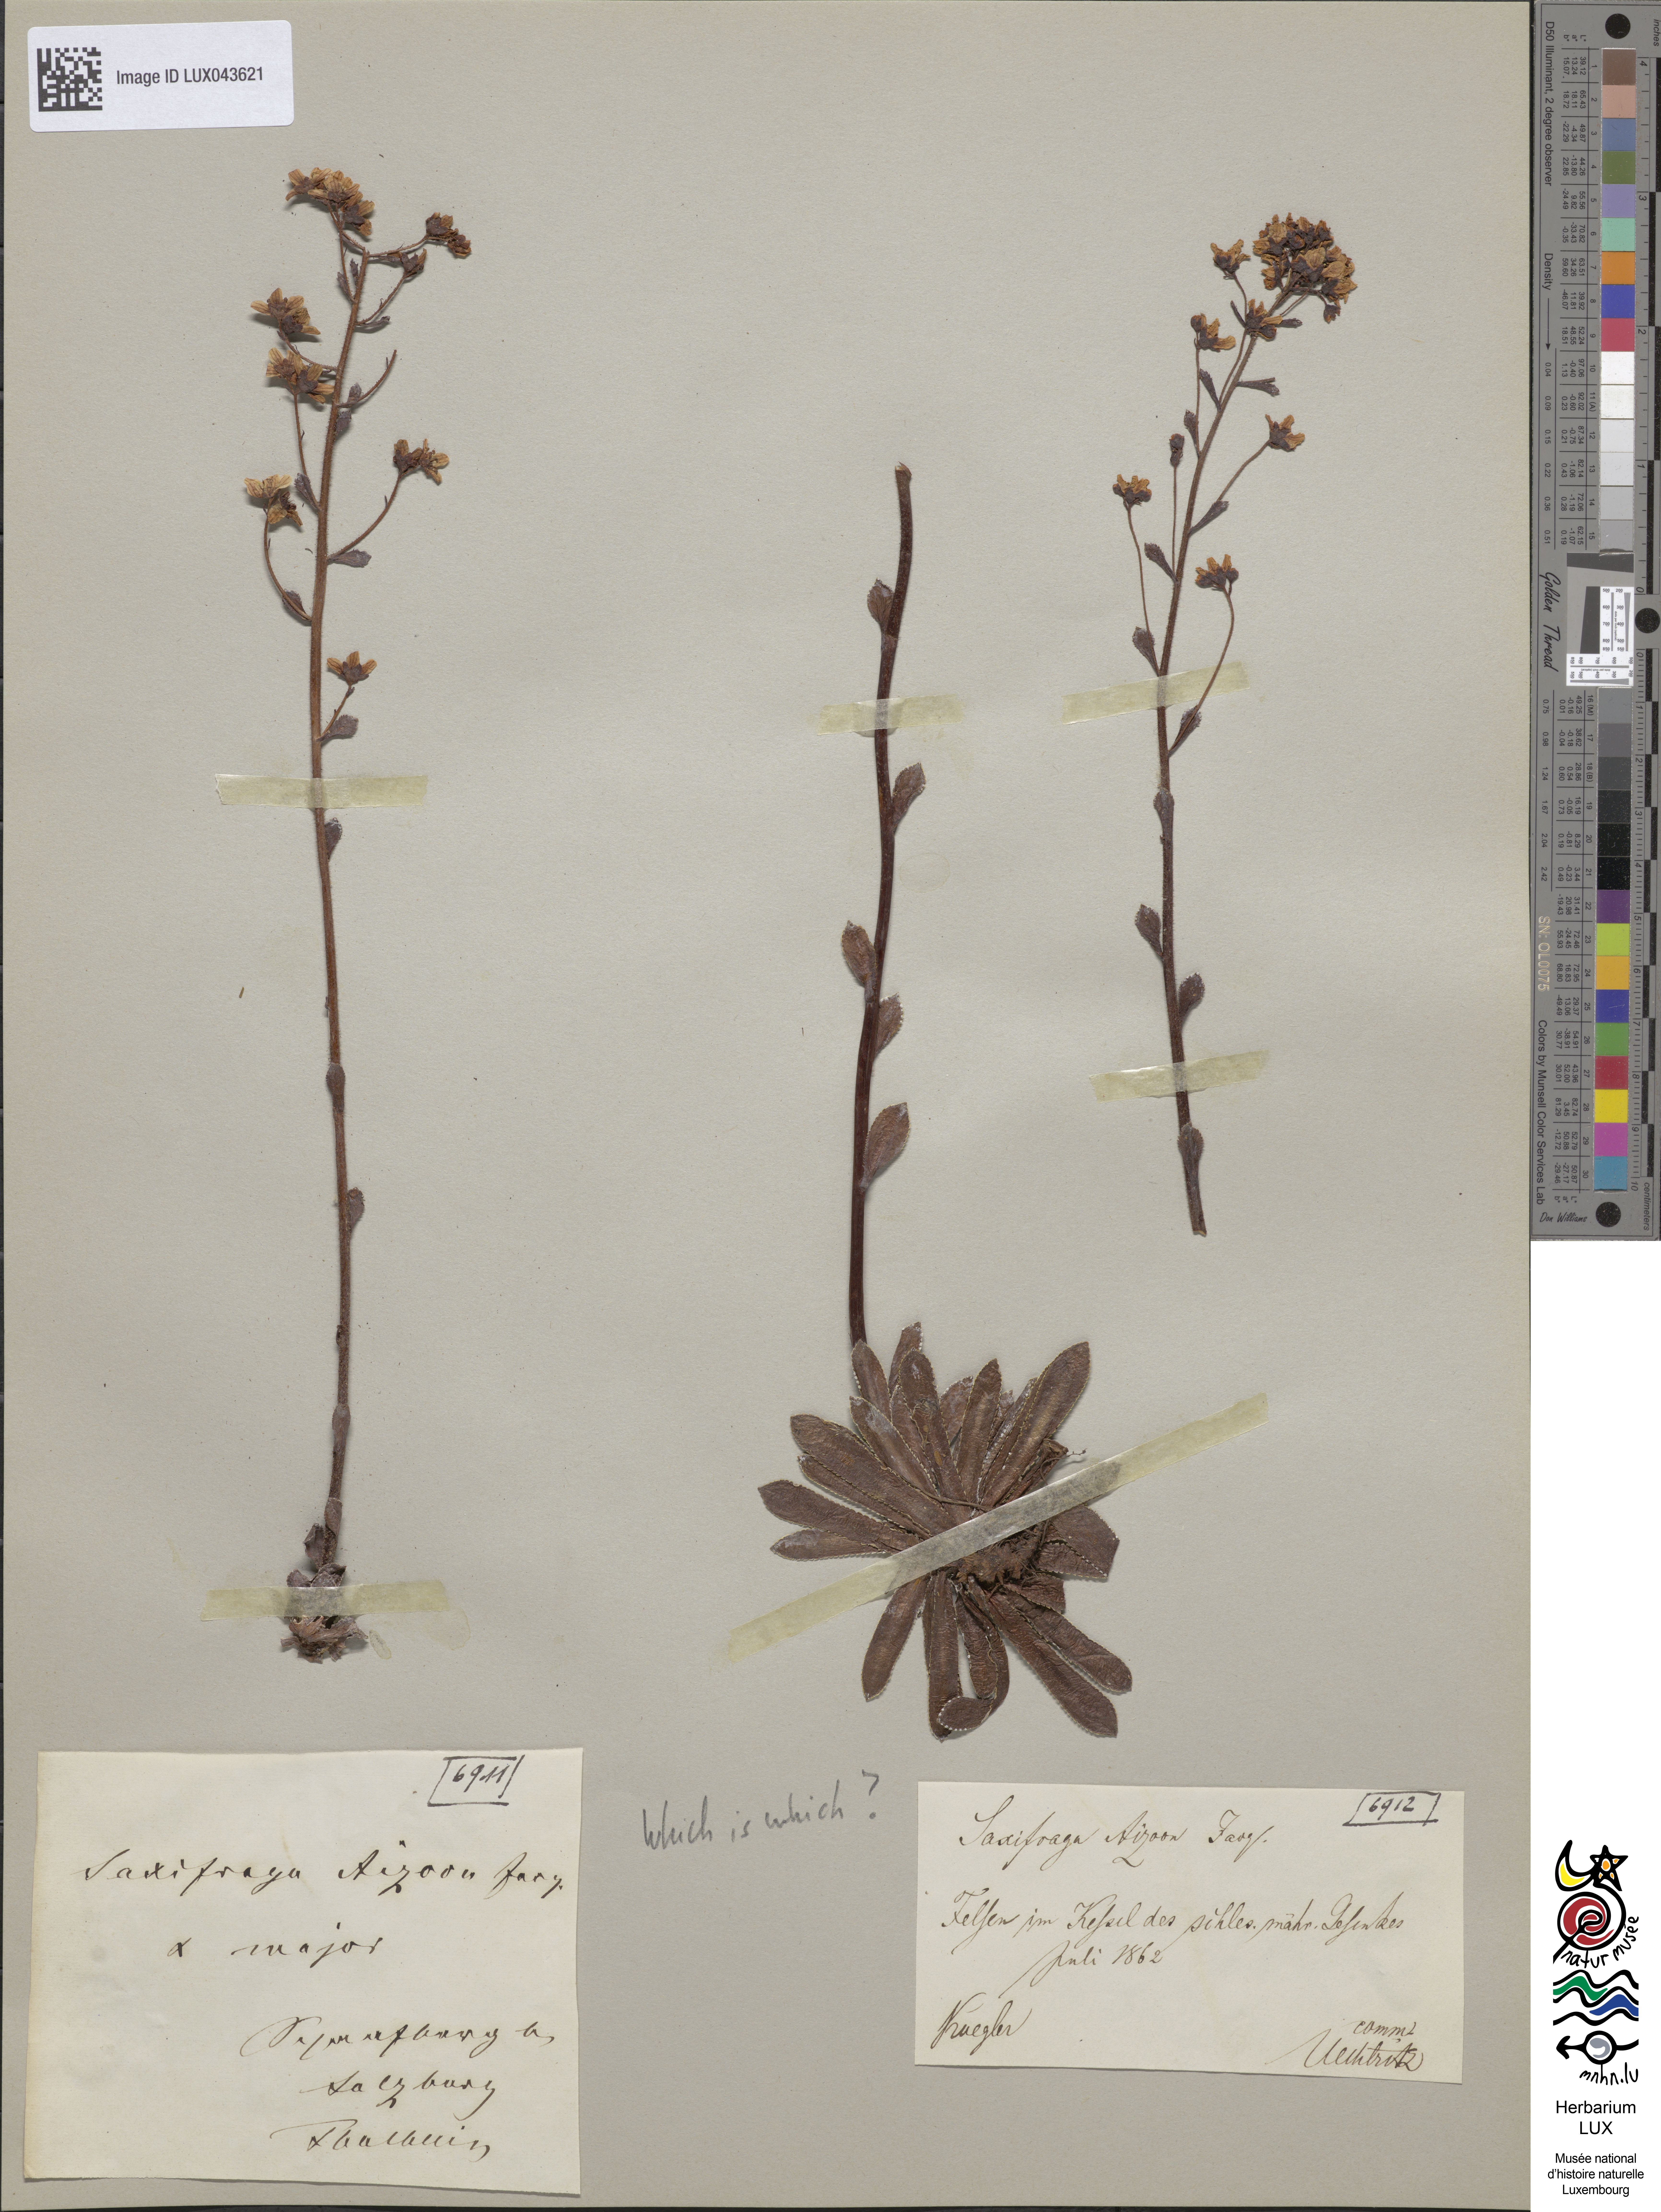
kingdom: Plantae
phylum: Tracheophyta
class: Magnoliopsida
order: Saxifragales
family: Saxifragaceae
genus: Saxifraga
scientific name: Saxifraga paniculata
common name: Livelong saxifrage
